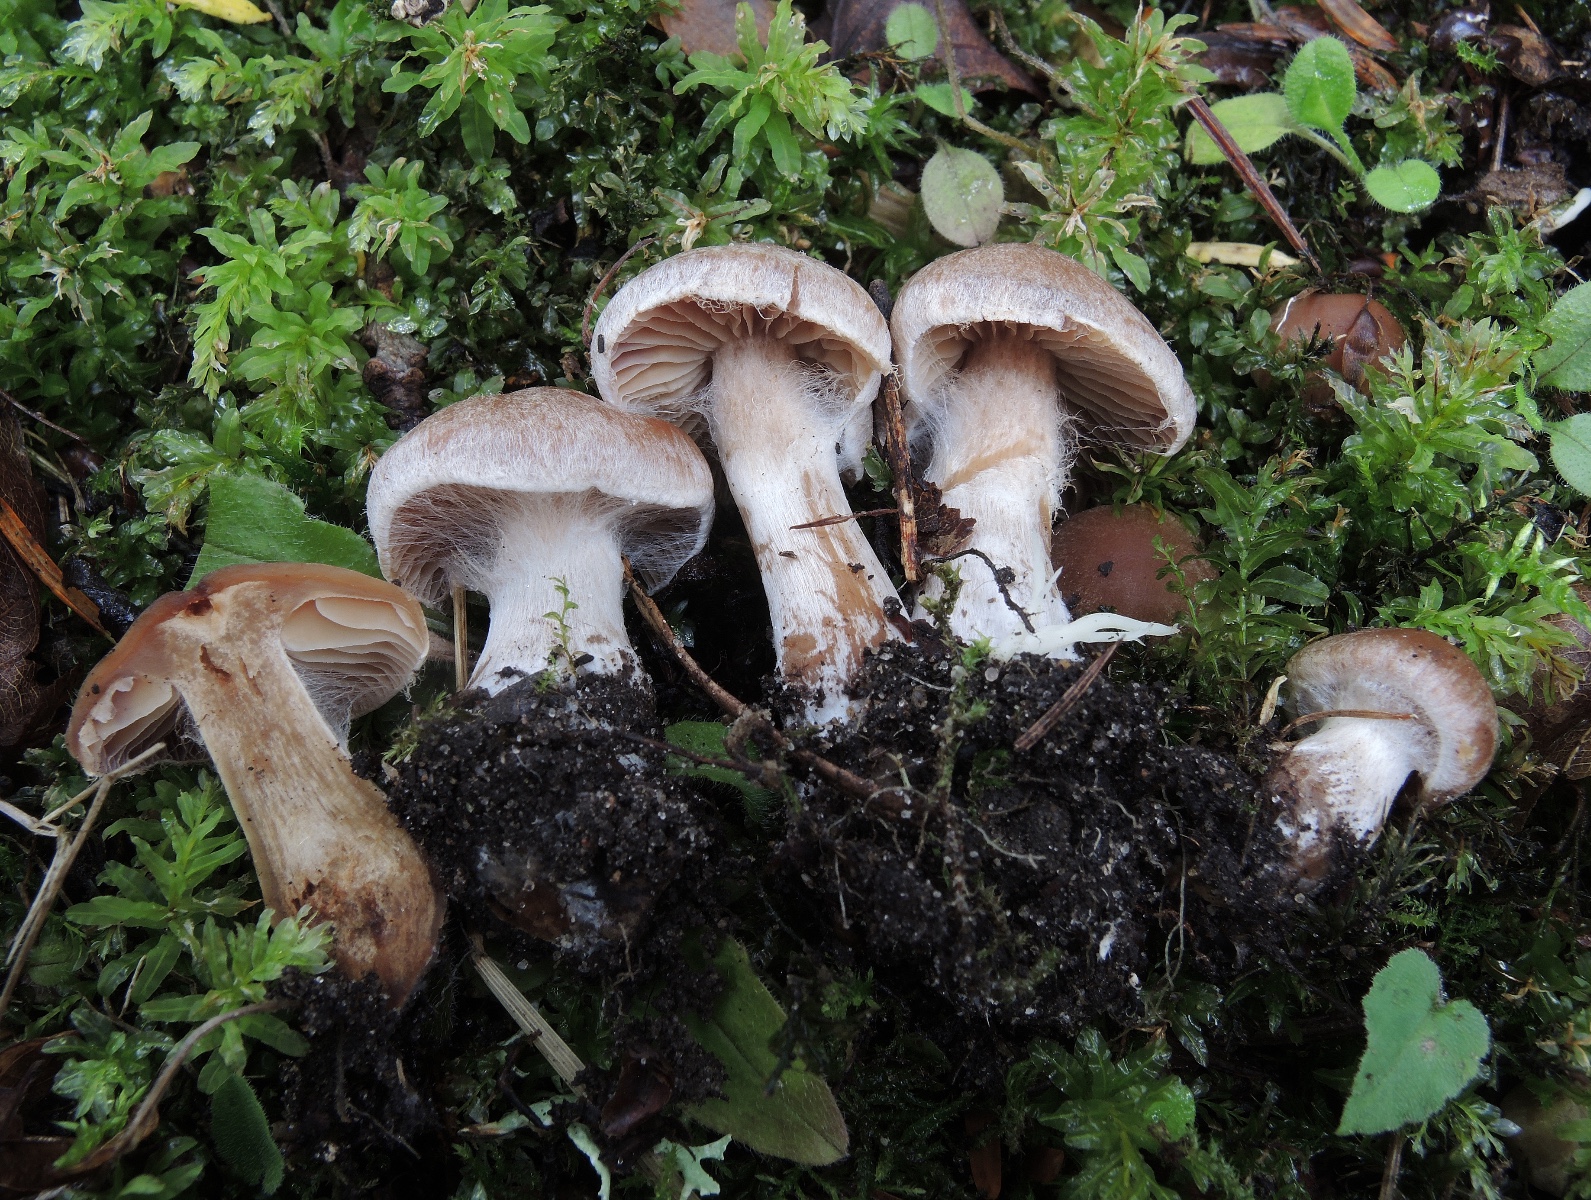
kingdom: Fungi
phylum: Basidiomycota
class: Agaricomycetes
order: Agaricales
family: Cortinariaceae
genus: Cortinarius
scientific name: Cortinarius epipurrus
